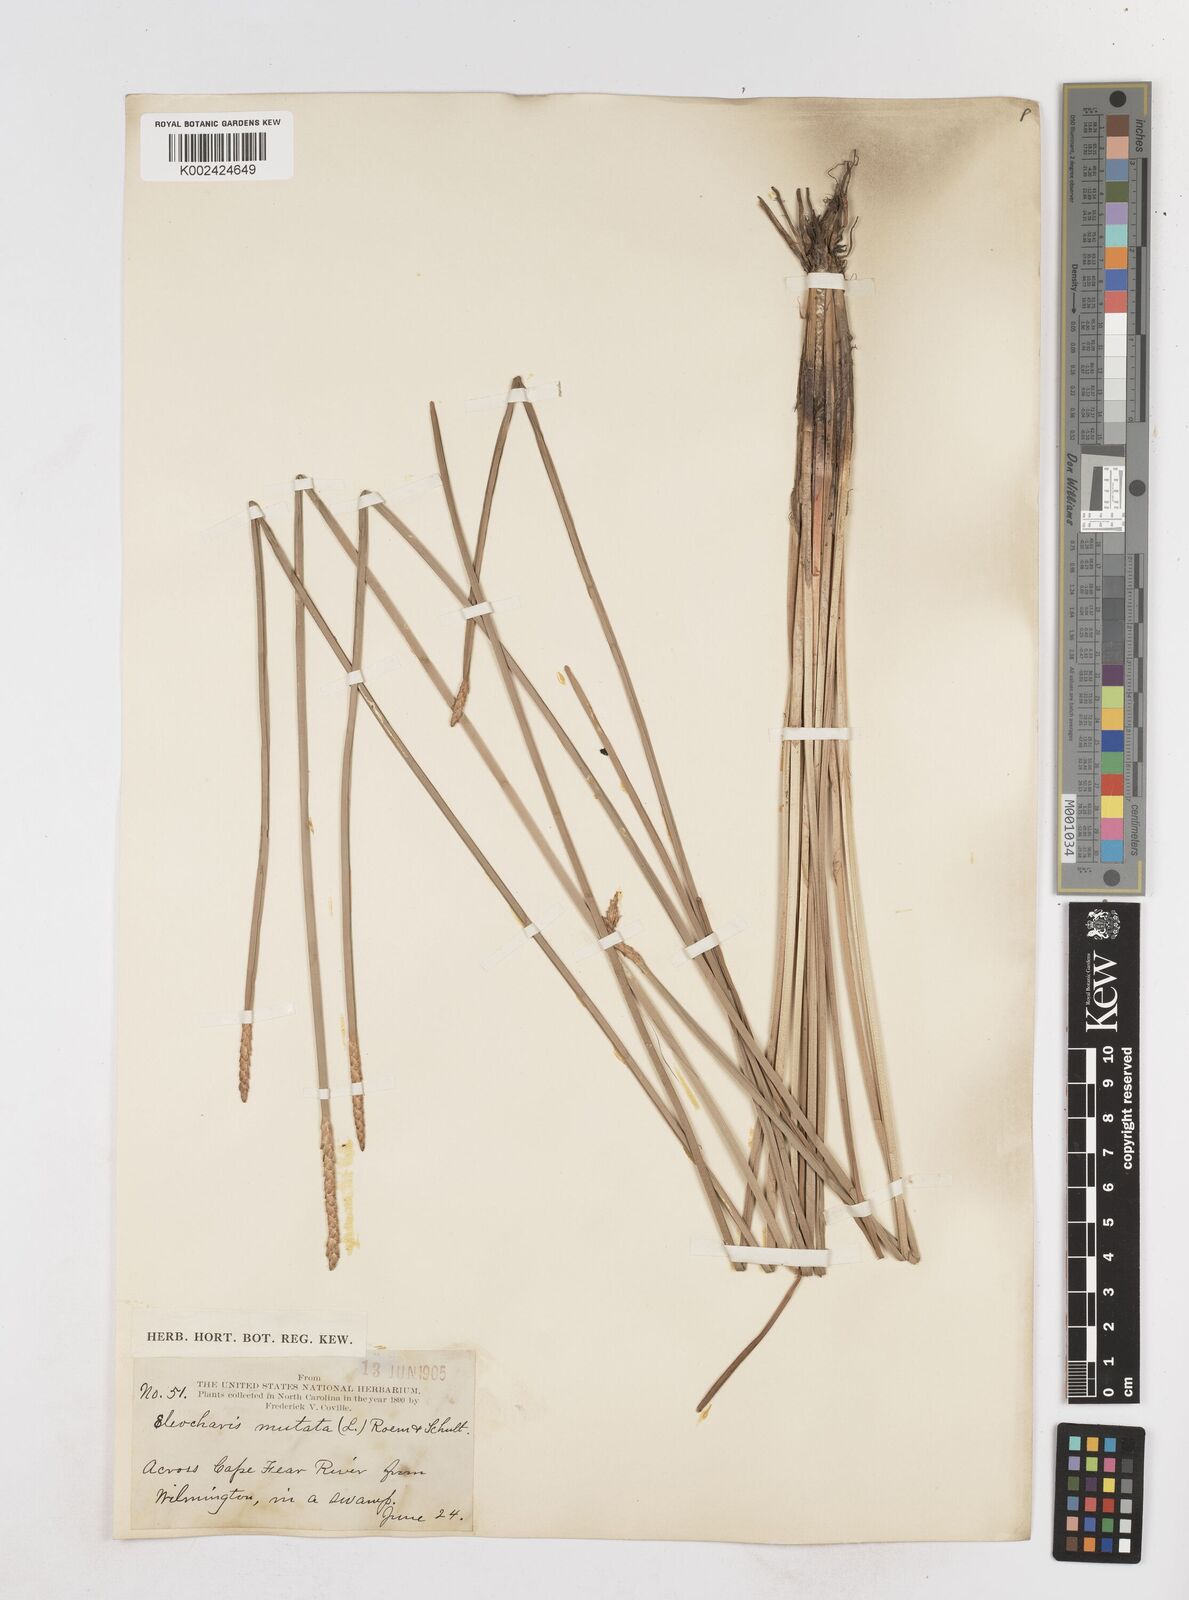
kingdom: Plantae
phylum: Tracheophyta
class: Liliopsida
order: Poales
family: Cyperaceae
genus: Eleocharis
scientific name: Eleocharis mutata
